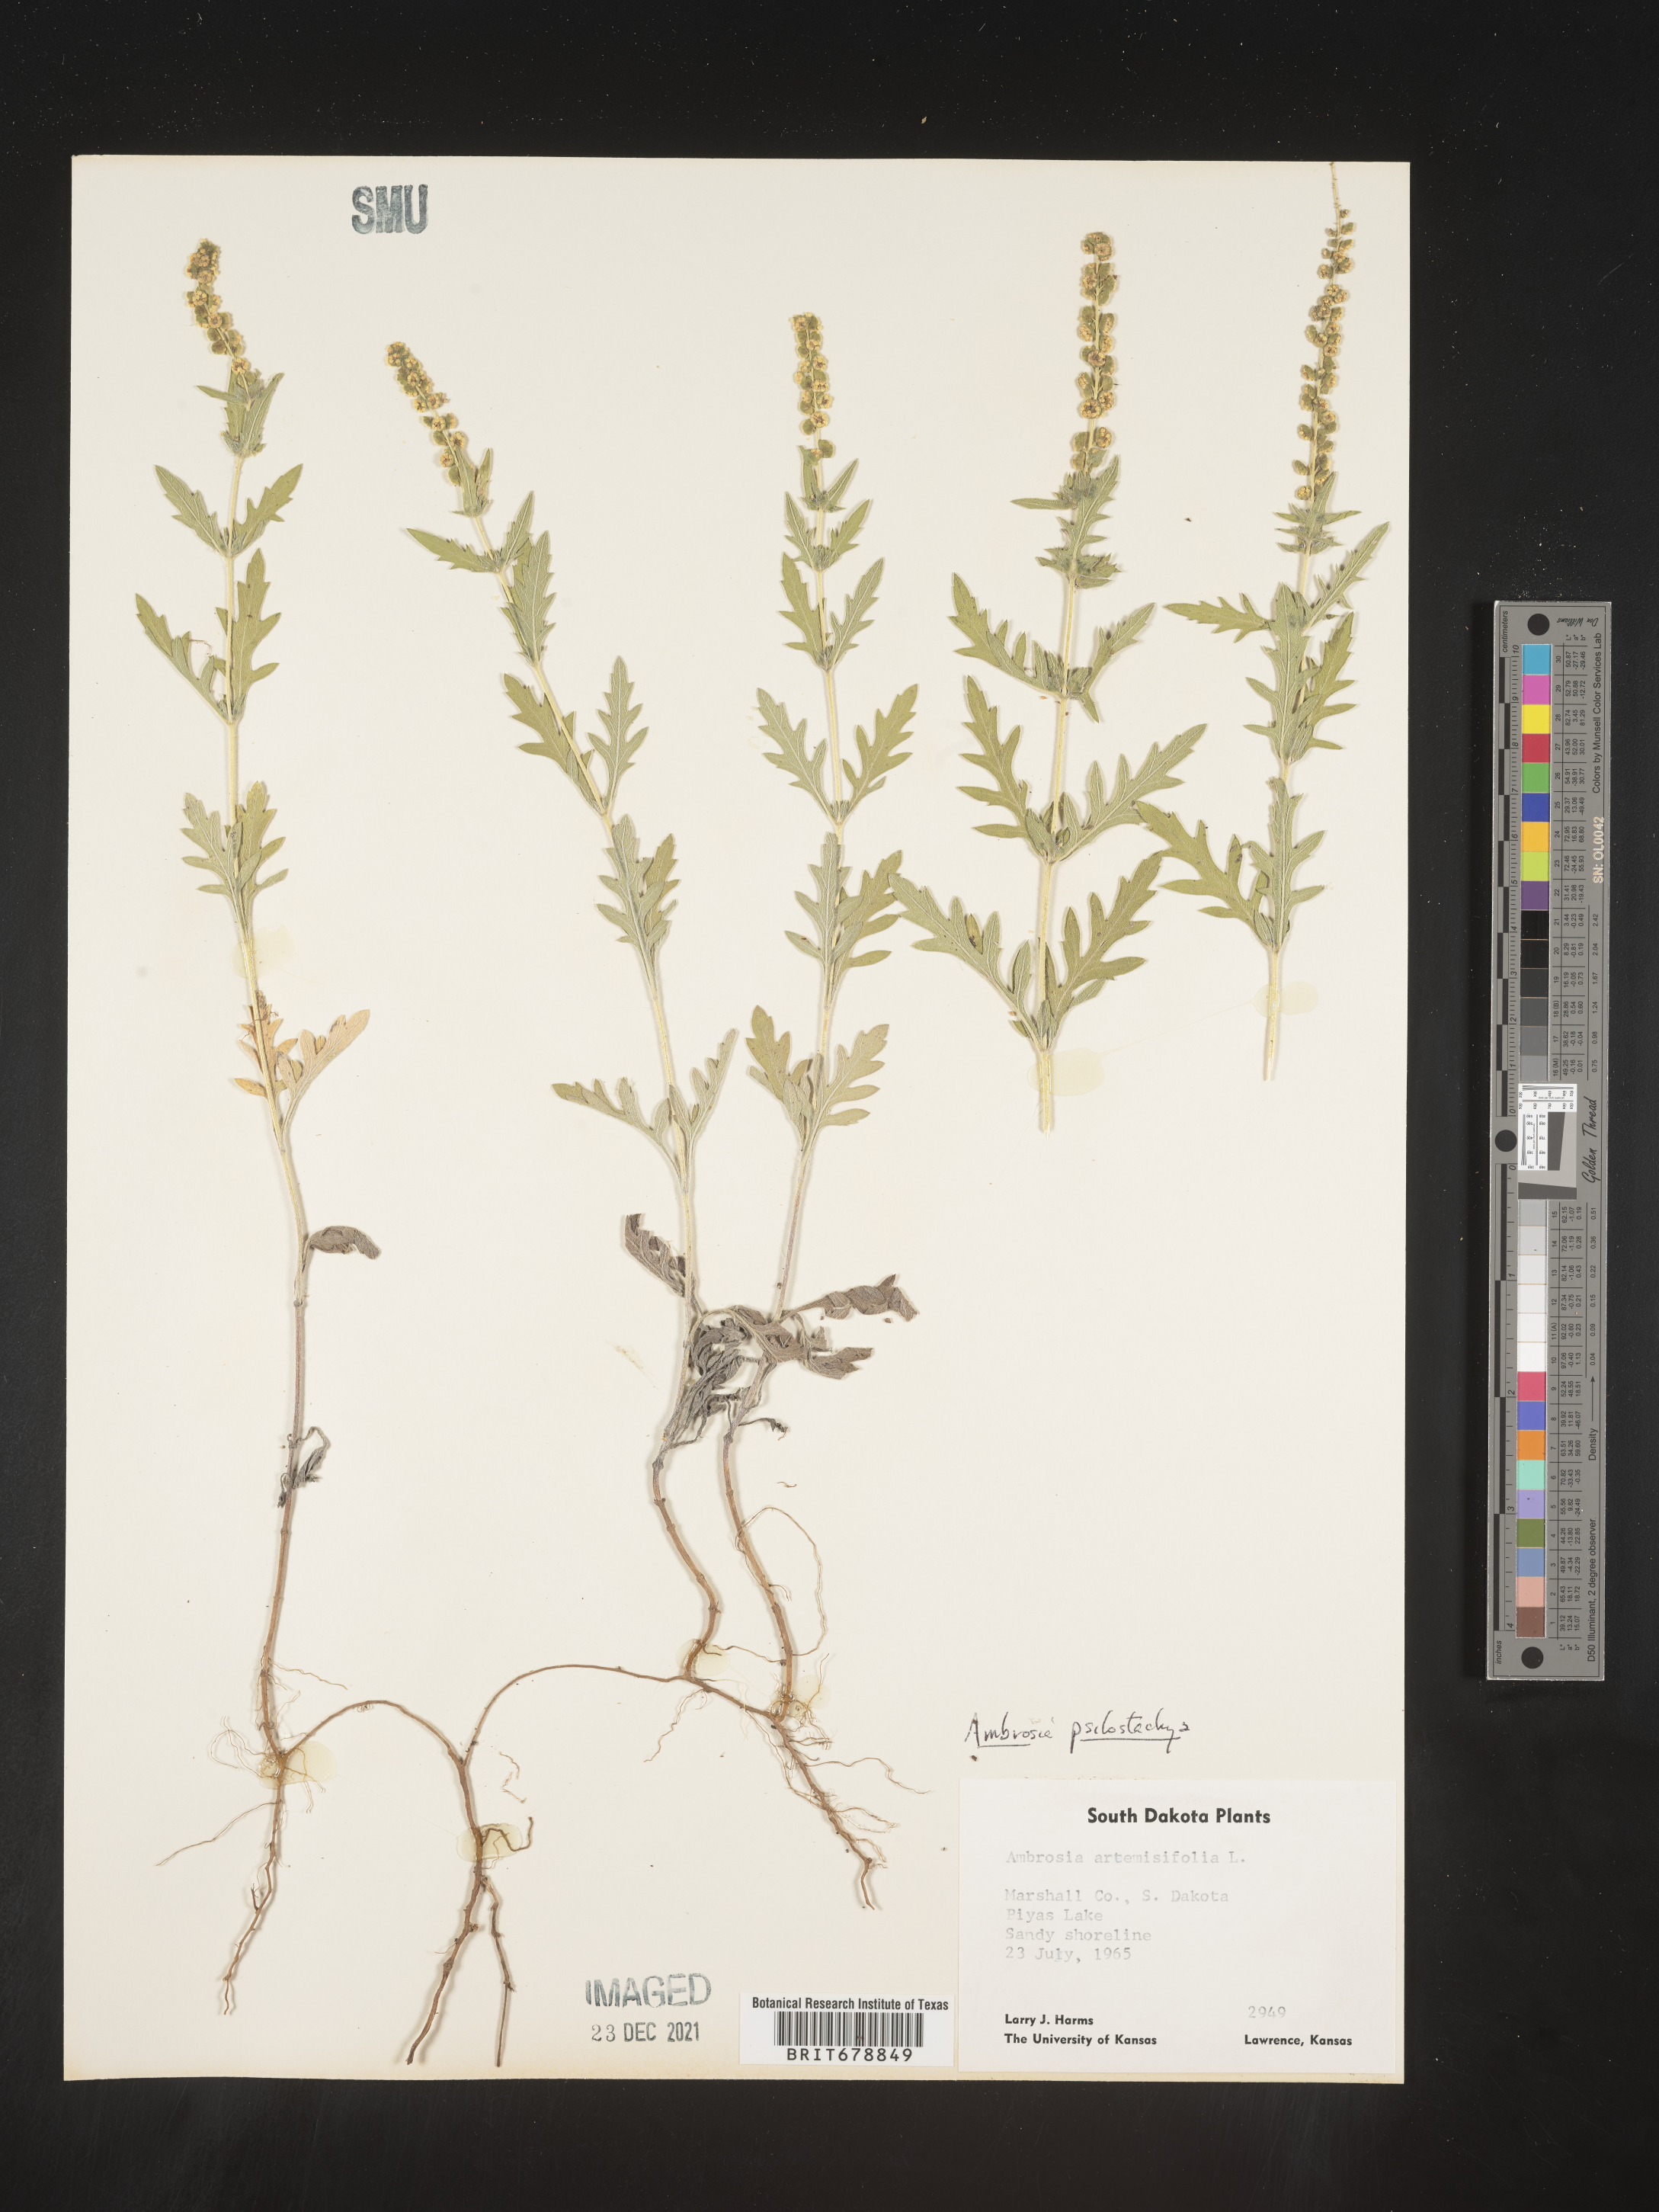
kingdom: Plantae
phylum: Tracheophyta
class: Magnoliopsida
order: Asterales
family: Asteraceae
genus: Ambrosia
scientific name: Ambrosia psilostachya
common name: Perennial ragweed
